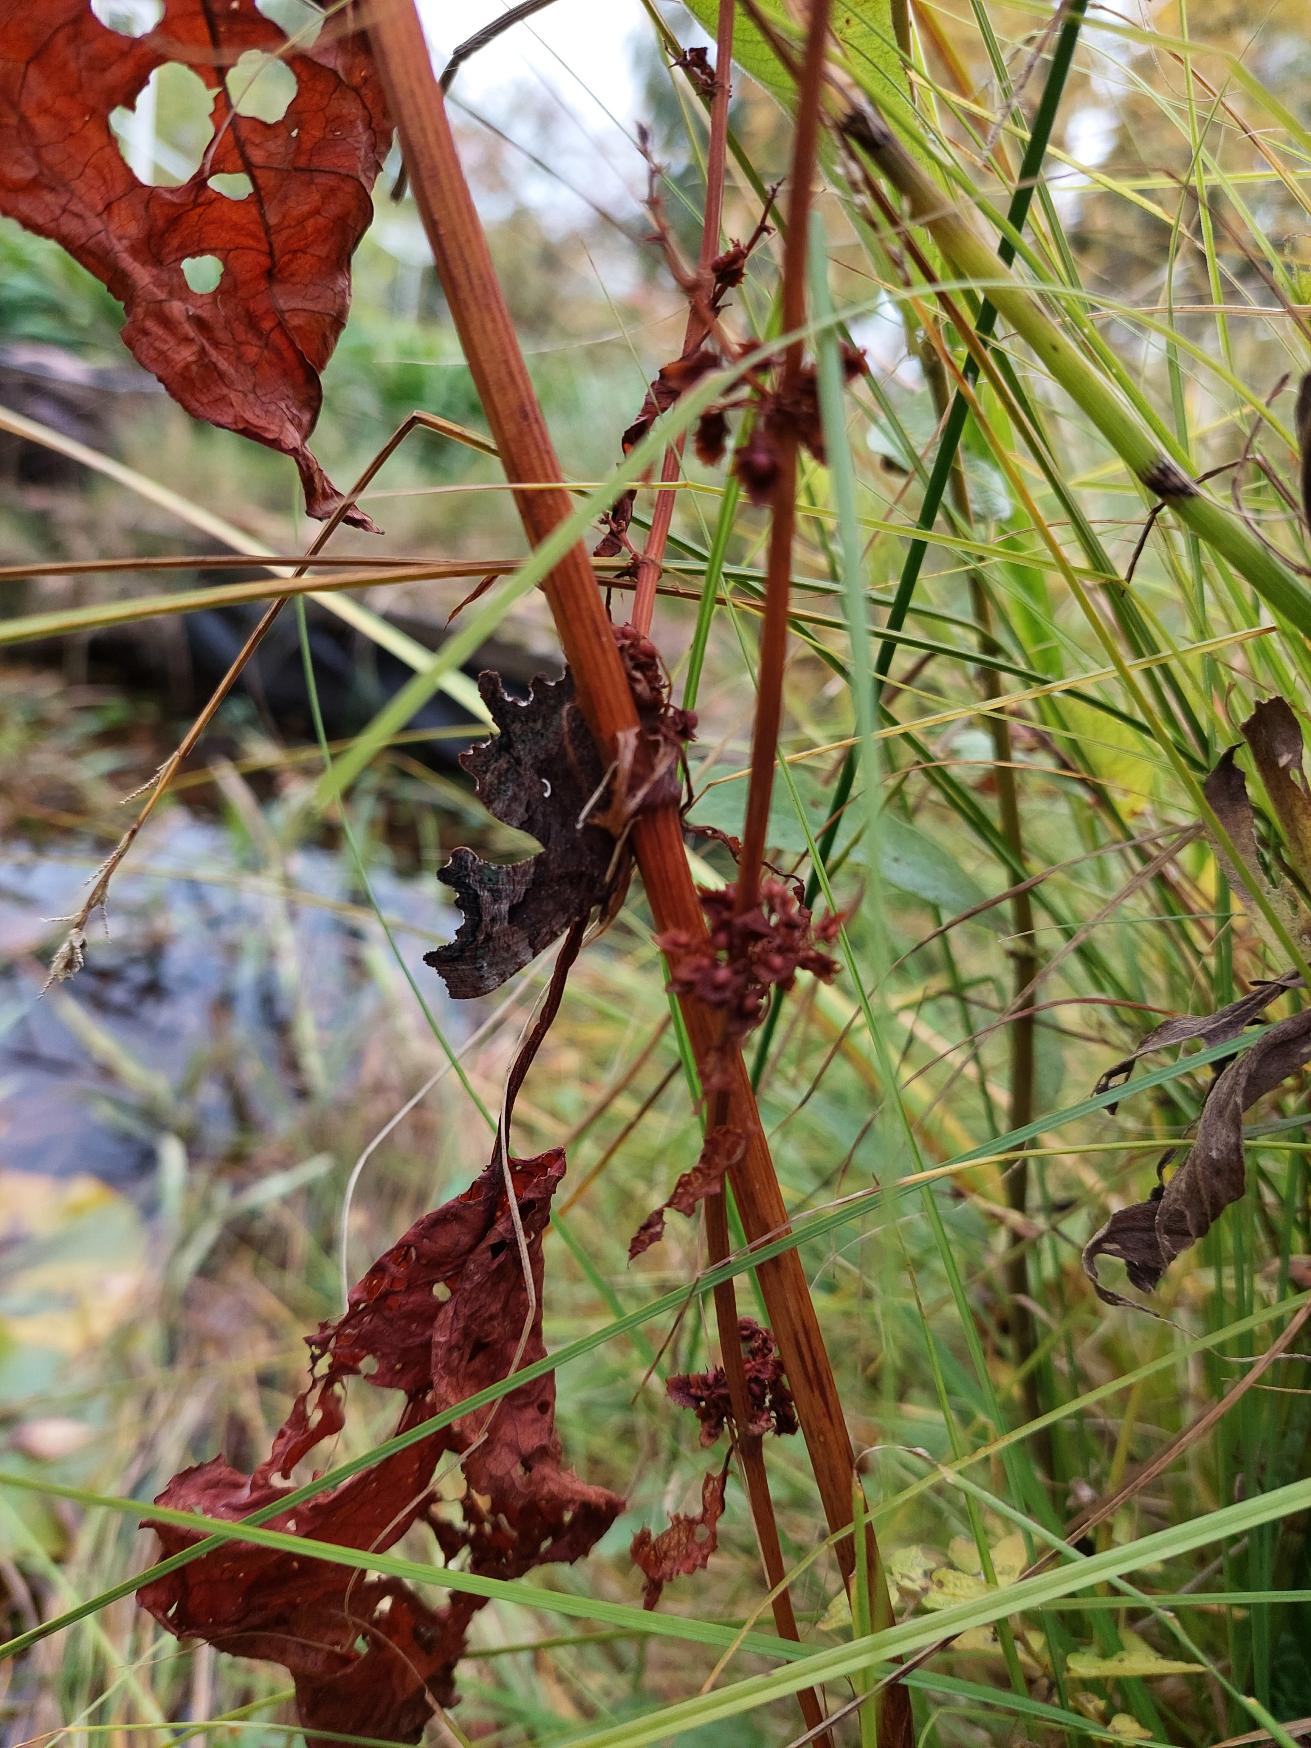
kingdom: Animalia
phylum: Arthropoda
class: Insecta
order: Lepidoptera
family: Nymphalidae
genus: Polygonia
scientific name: Polygonia c-album
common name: Det hvide C
